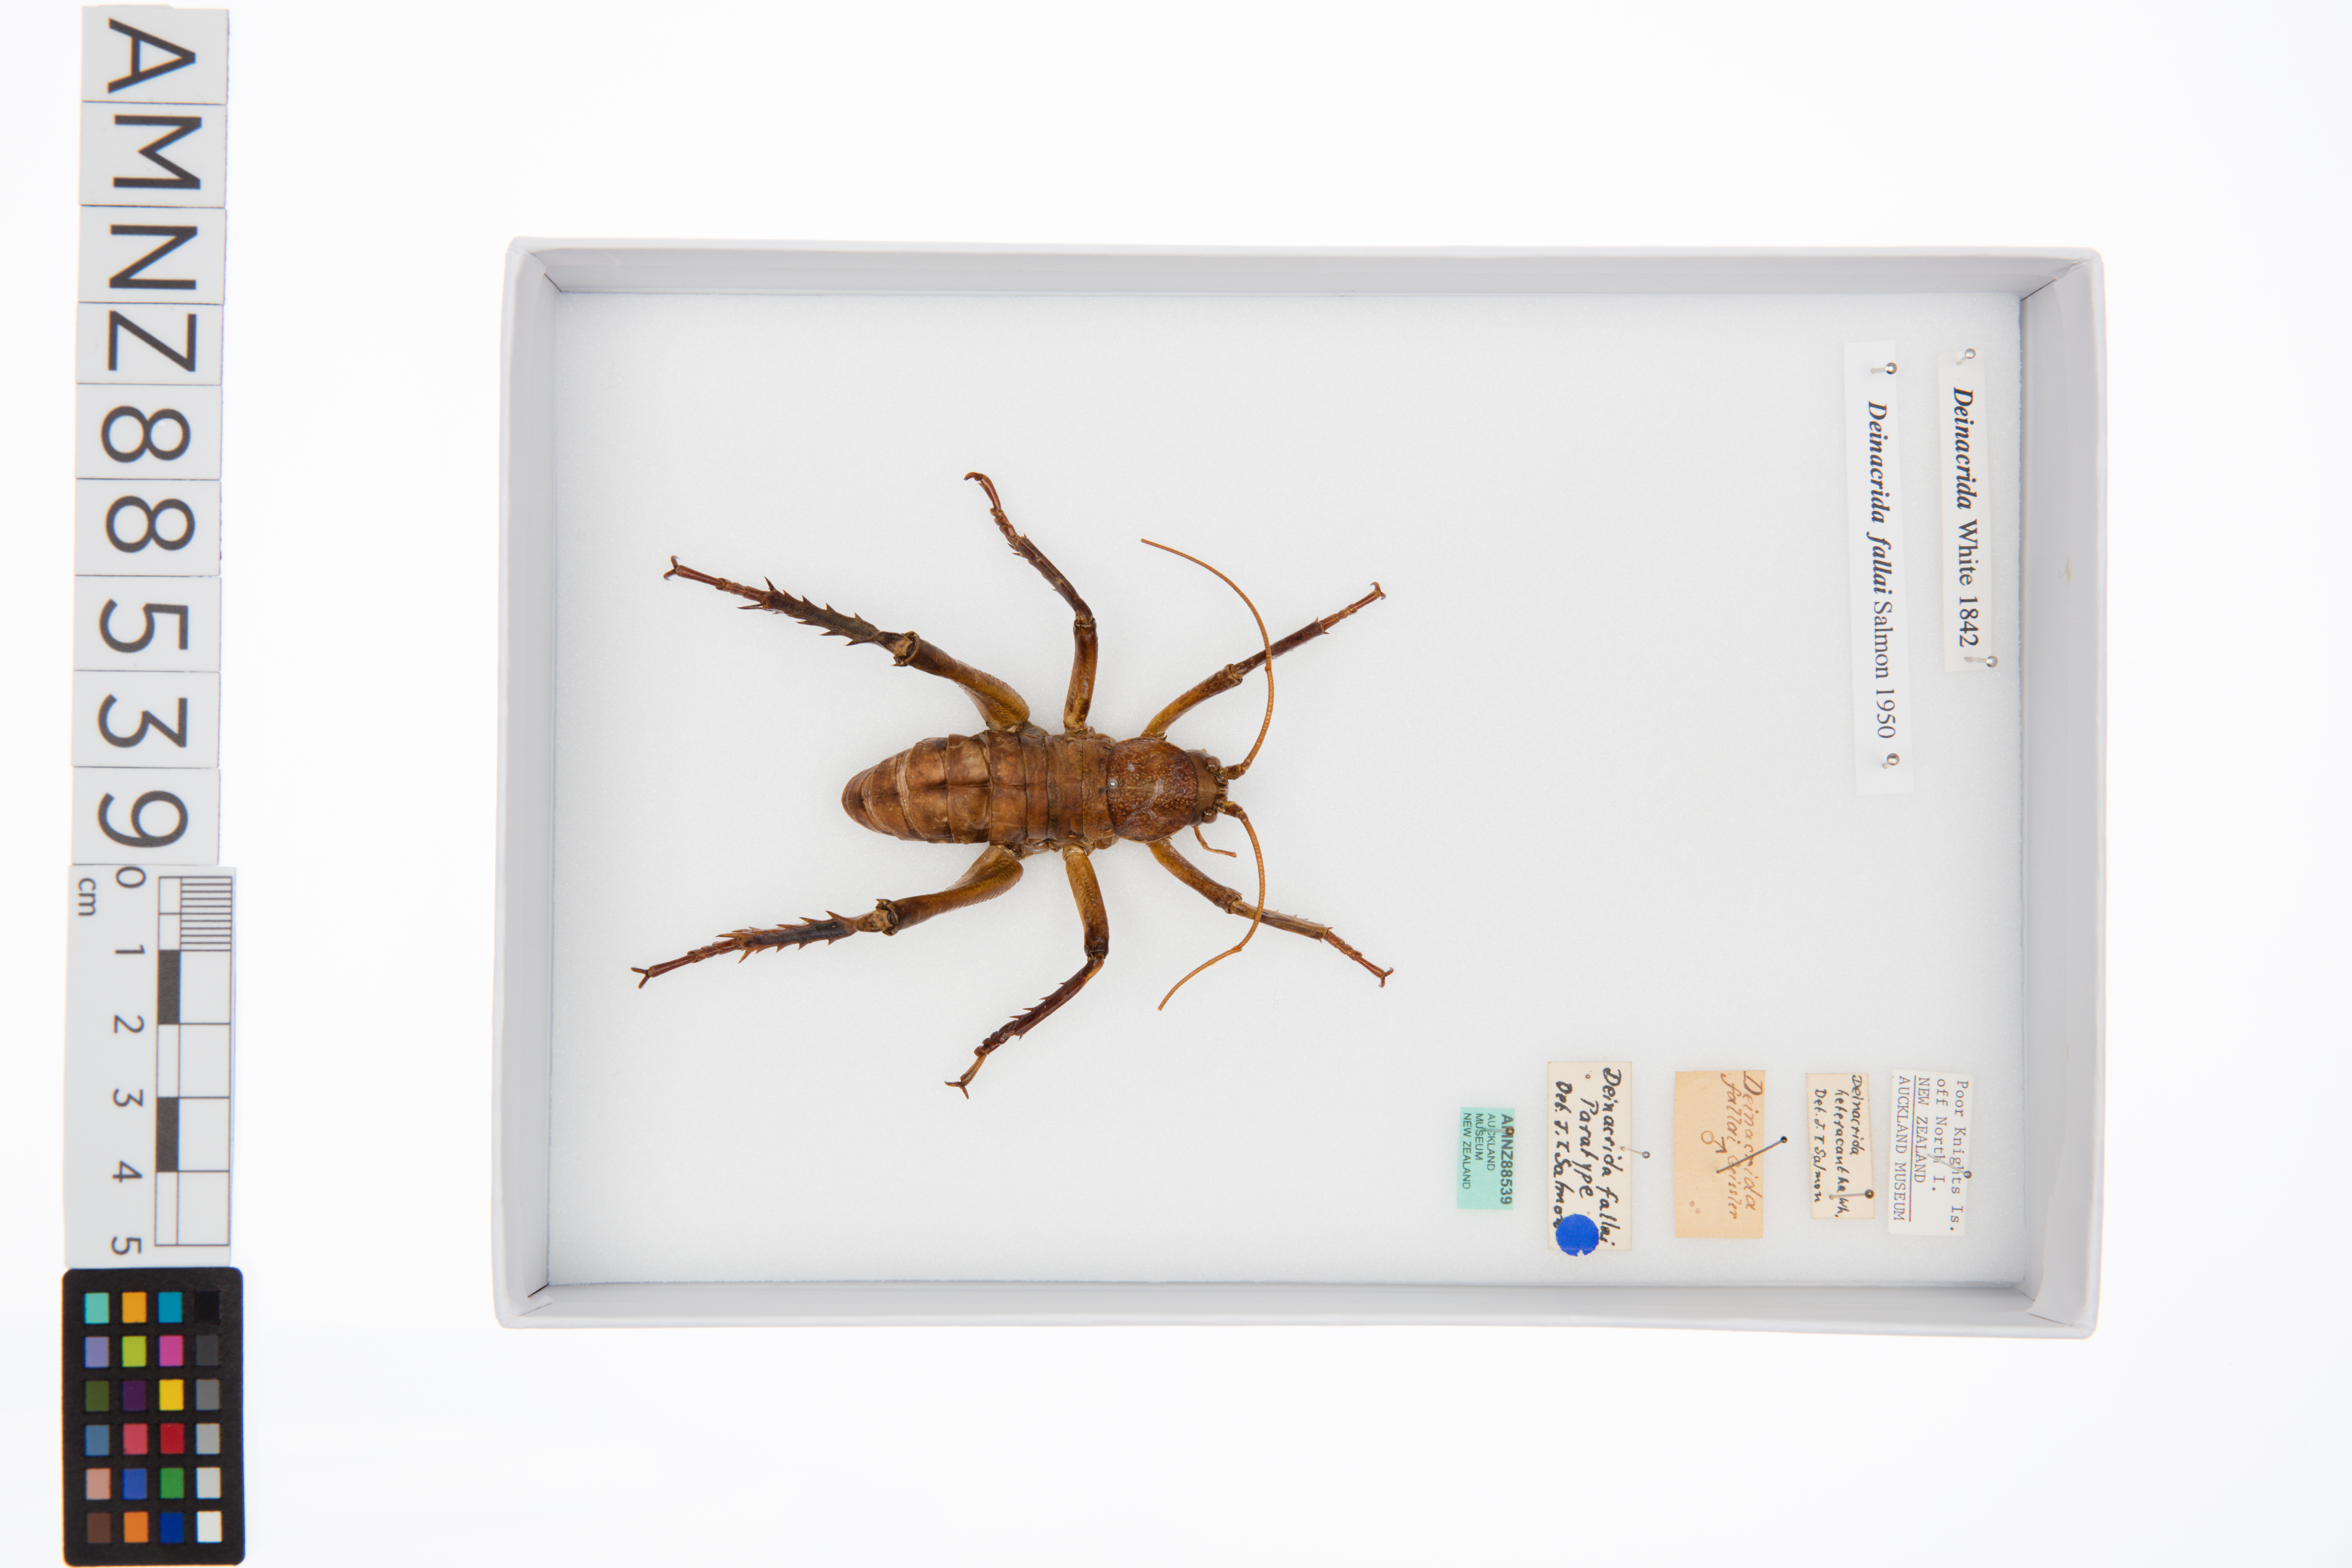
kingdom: Animalia
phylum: Arthropoda
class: Insecta
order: Orthoptera
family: Anostostomatidae
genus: Deinacrida
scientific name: Deinacrida fallai
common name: Poor knights weta
